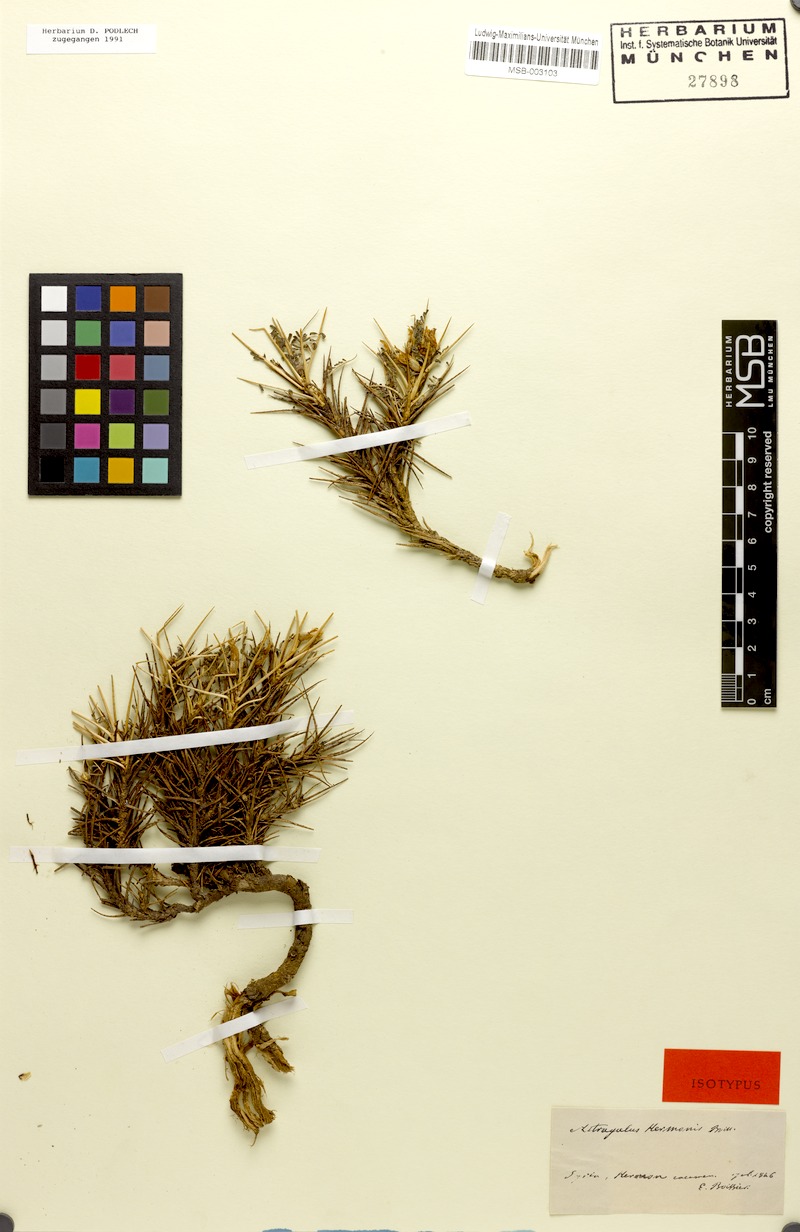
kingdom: Plantae
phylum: Tracheophyta
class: Magnoliopsida
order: Fabales
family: Fabaceae
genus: Astragalus
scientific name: Astragalus angustifolius
